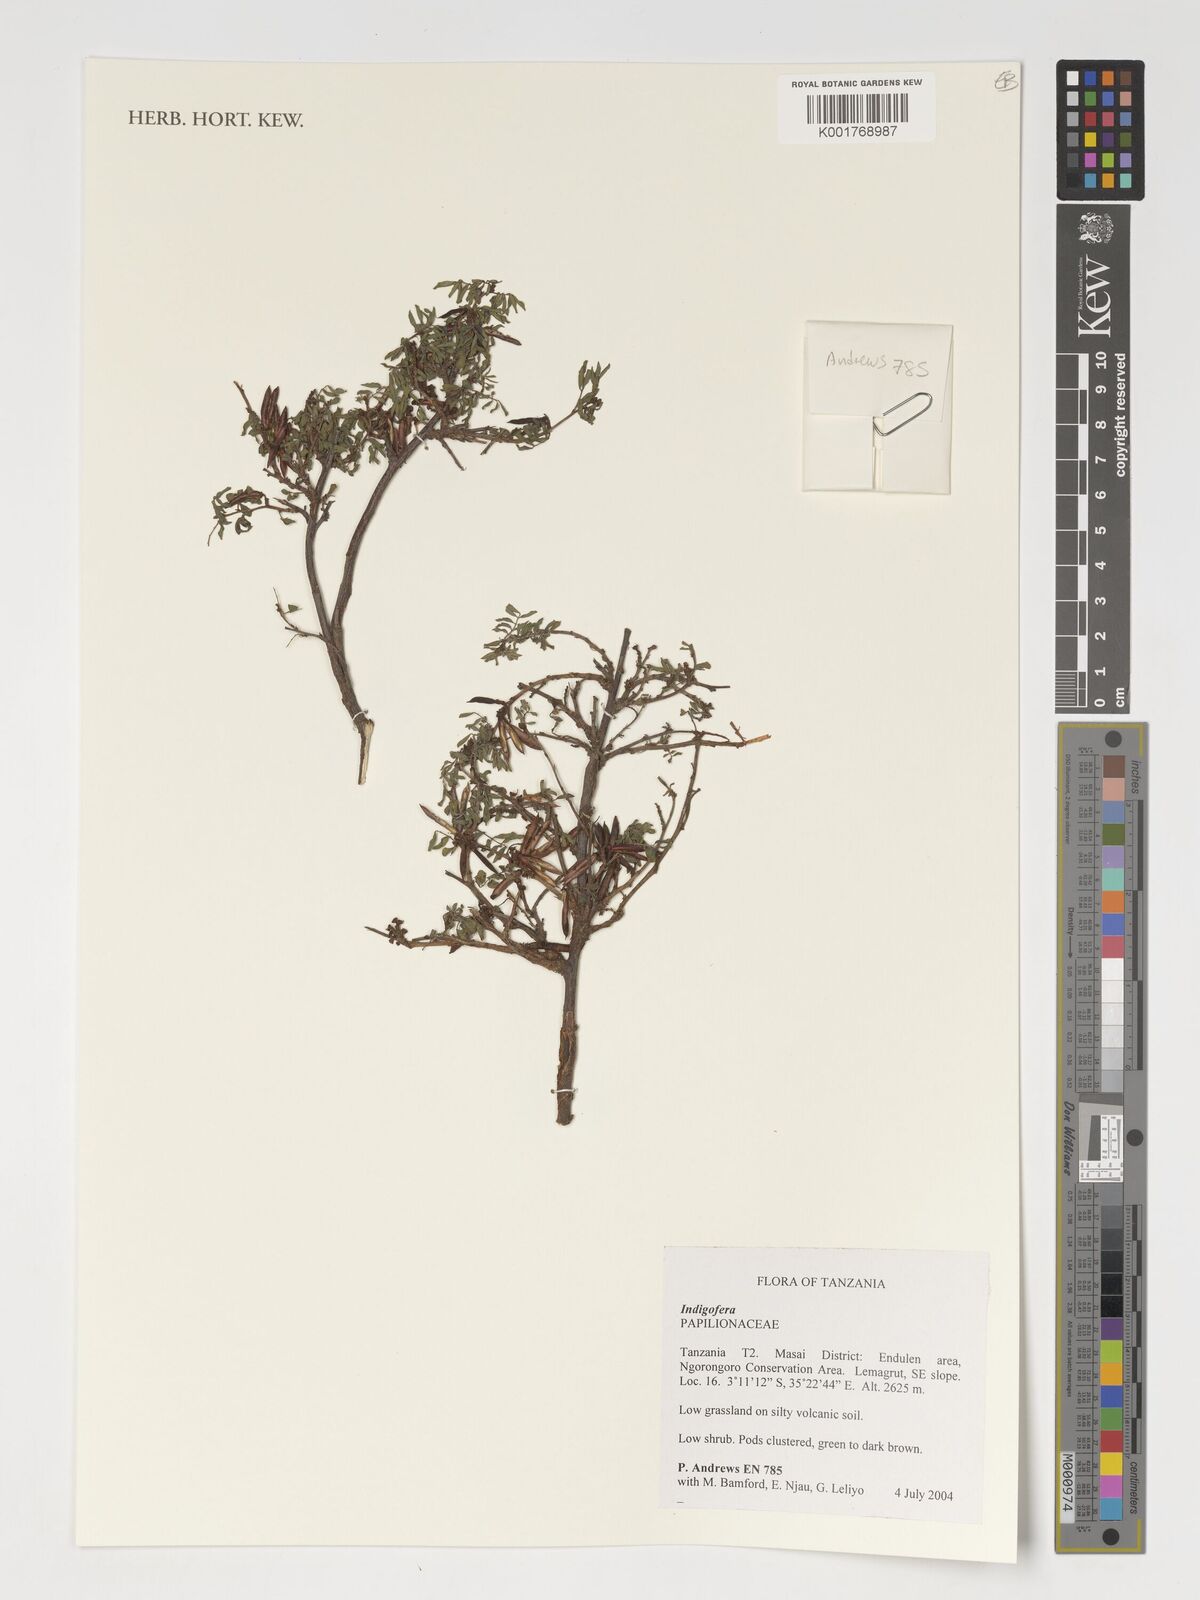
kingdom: Plantae
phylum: Tracheophyta
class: Magnoliopsida
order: Fabales
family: Fabaceae
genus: Indigofera
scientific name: Indigofera
